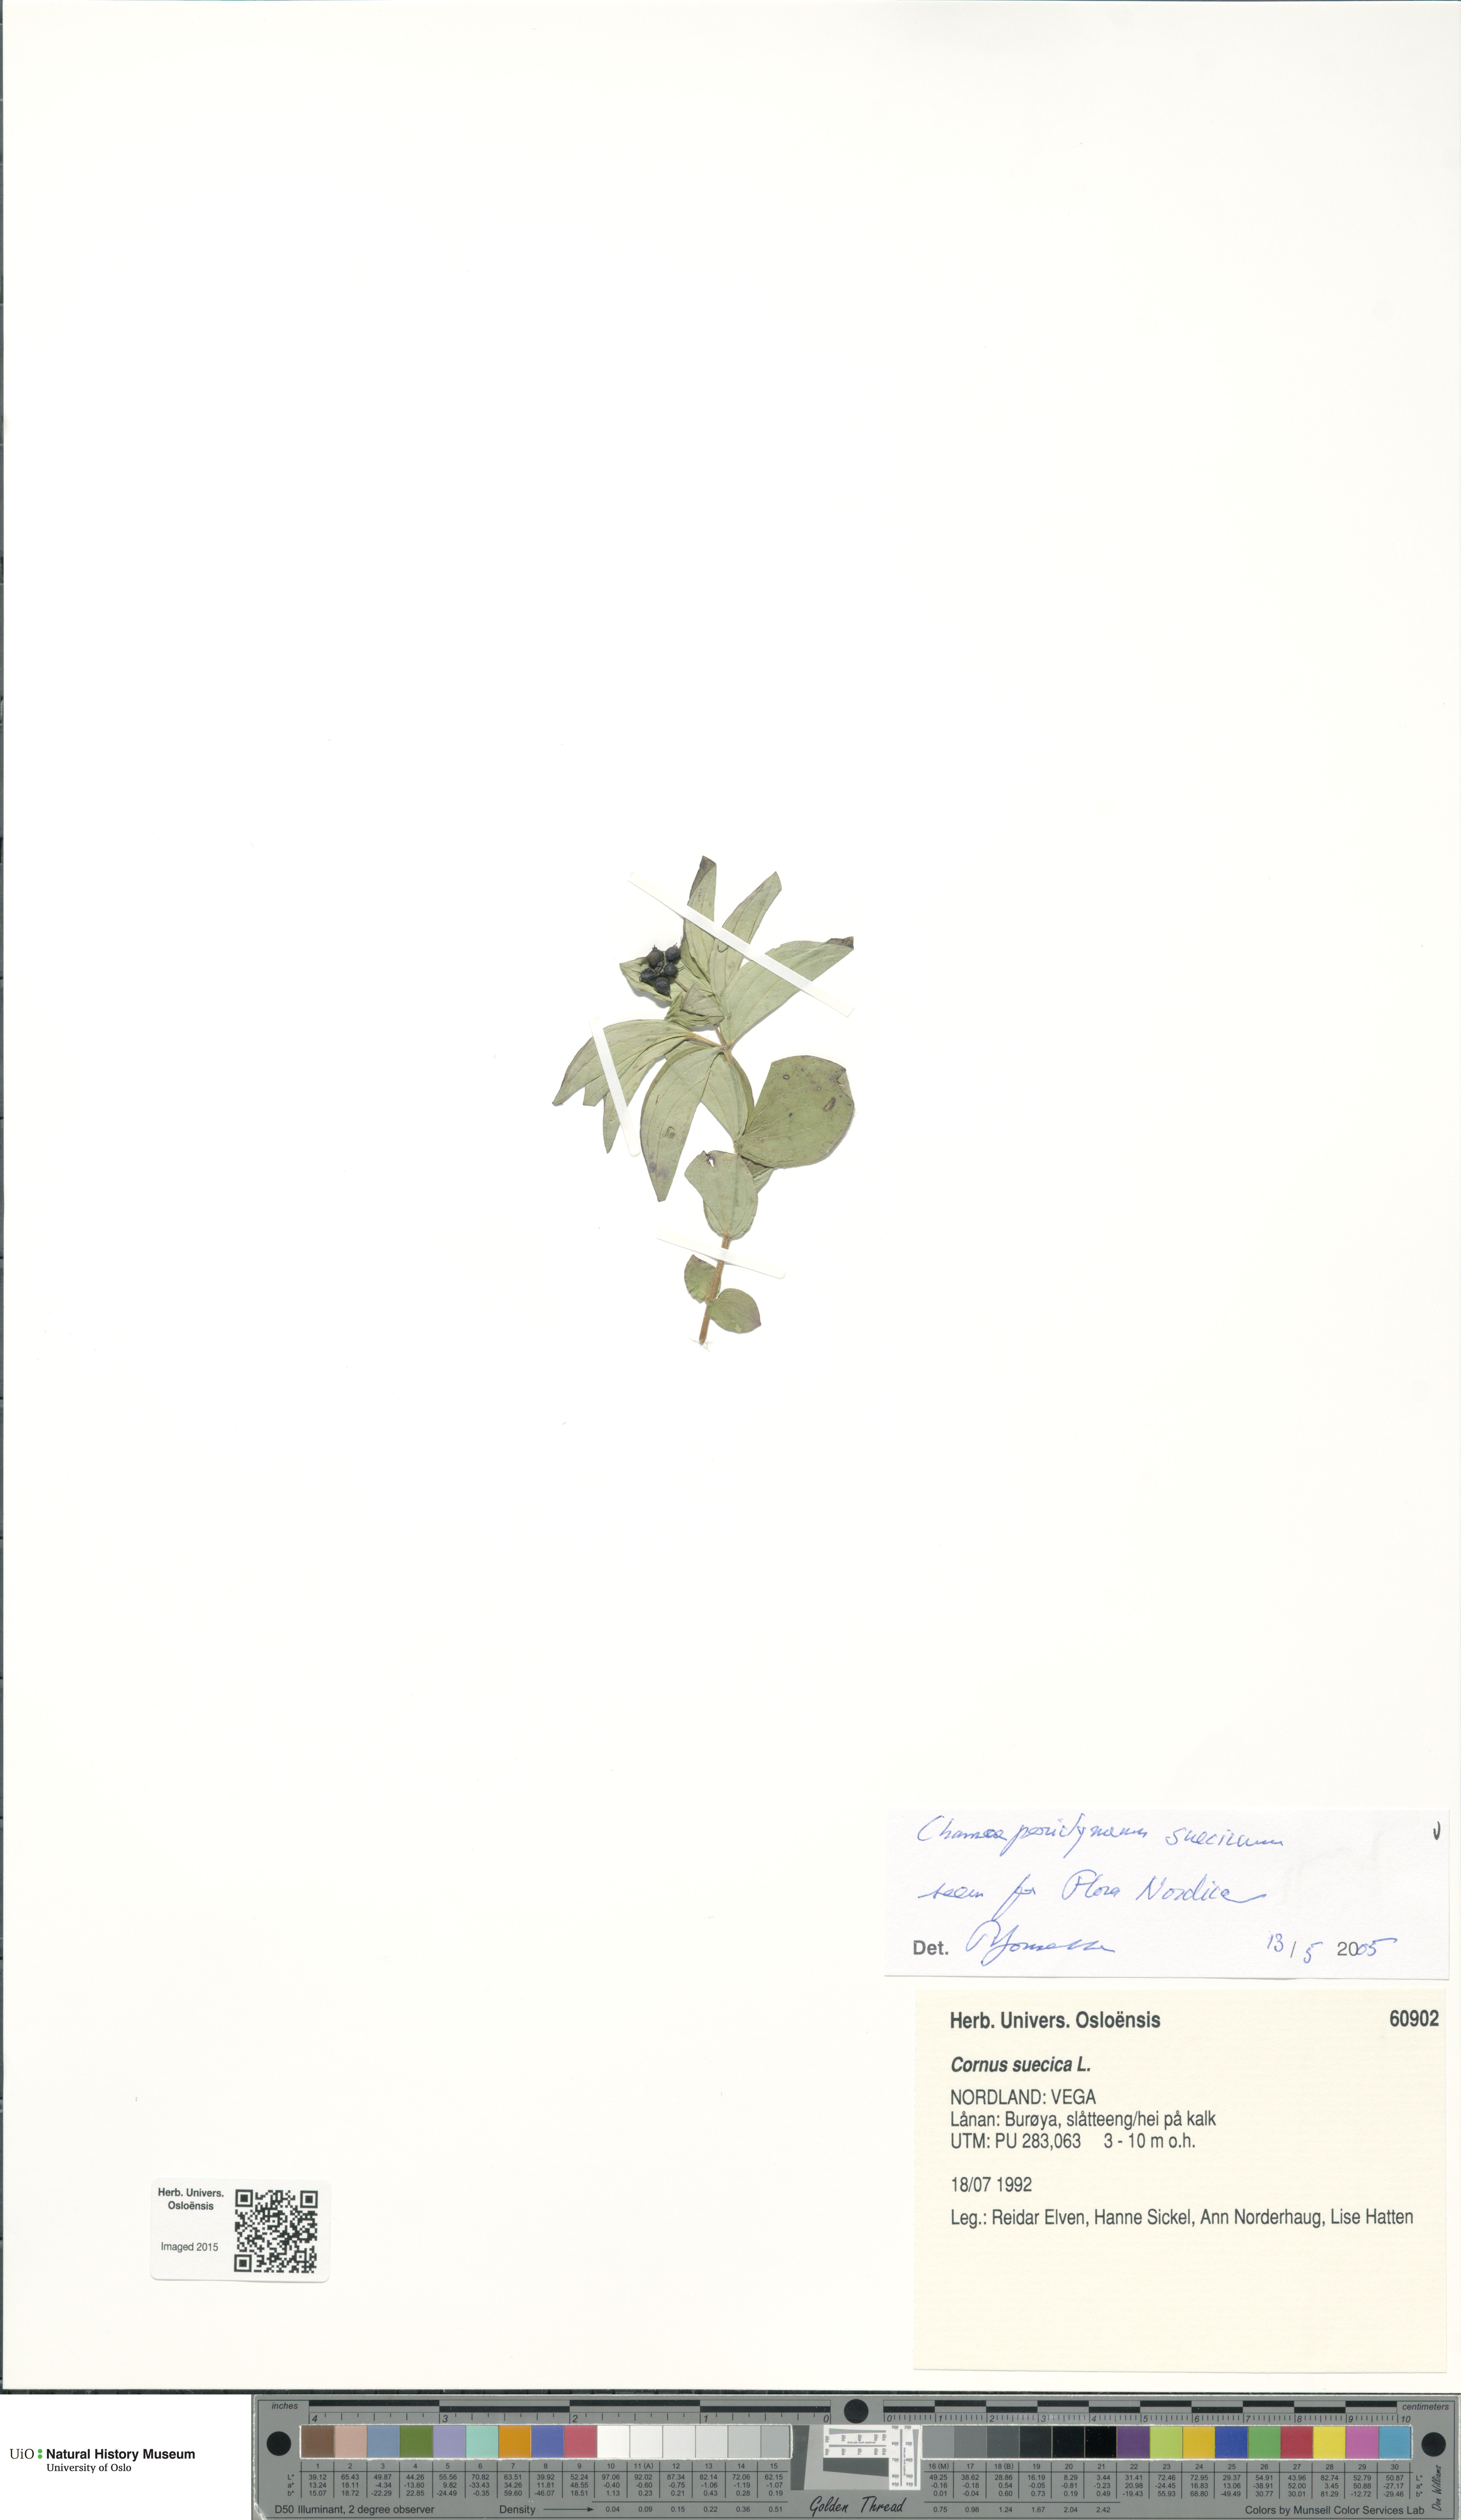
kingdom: Plantae
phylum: Tracheophyta
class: Magnoliopsida
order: Cornales
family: Cornaceae
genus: Cornus
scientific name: Cornus suecica
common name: Dwarf cornel
